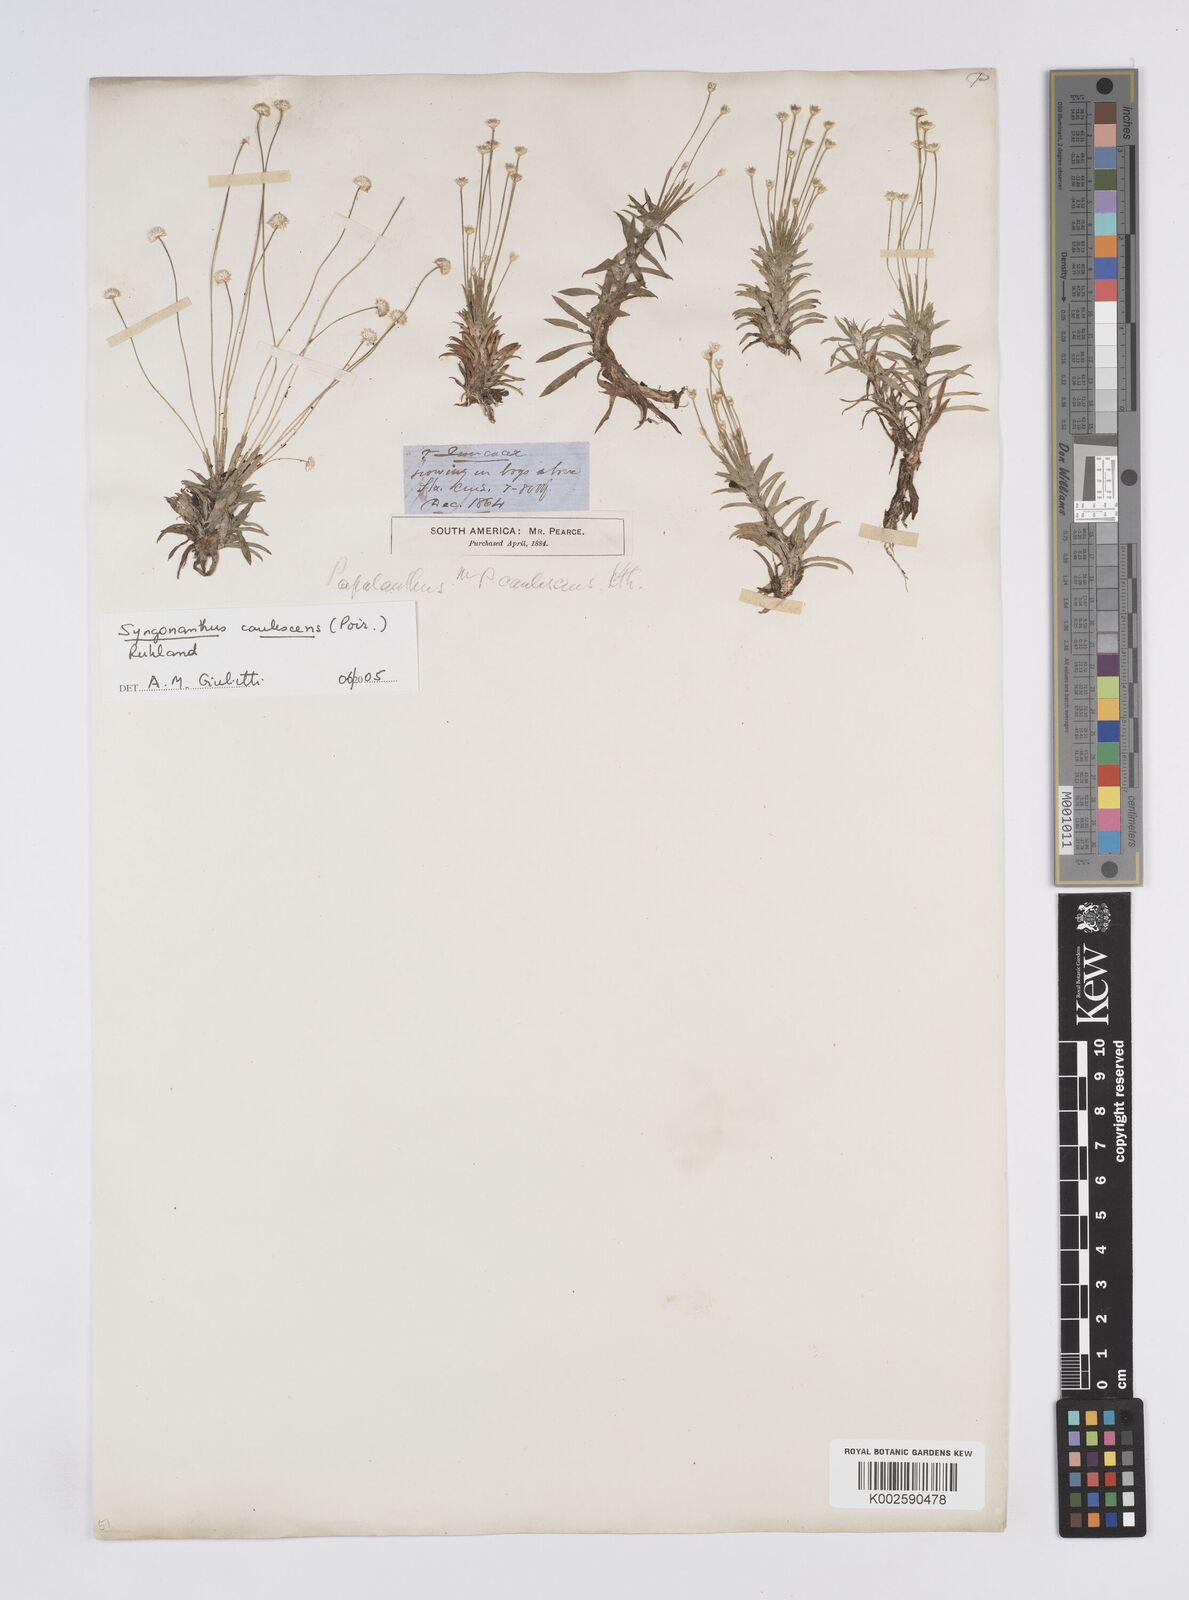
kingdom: Plantae
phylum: Tracheophyta
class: Liliopsida
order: Poales
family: Eriocaulaceae
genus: Syngonanthus
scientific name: Syngonanthus caulescens
